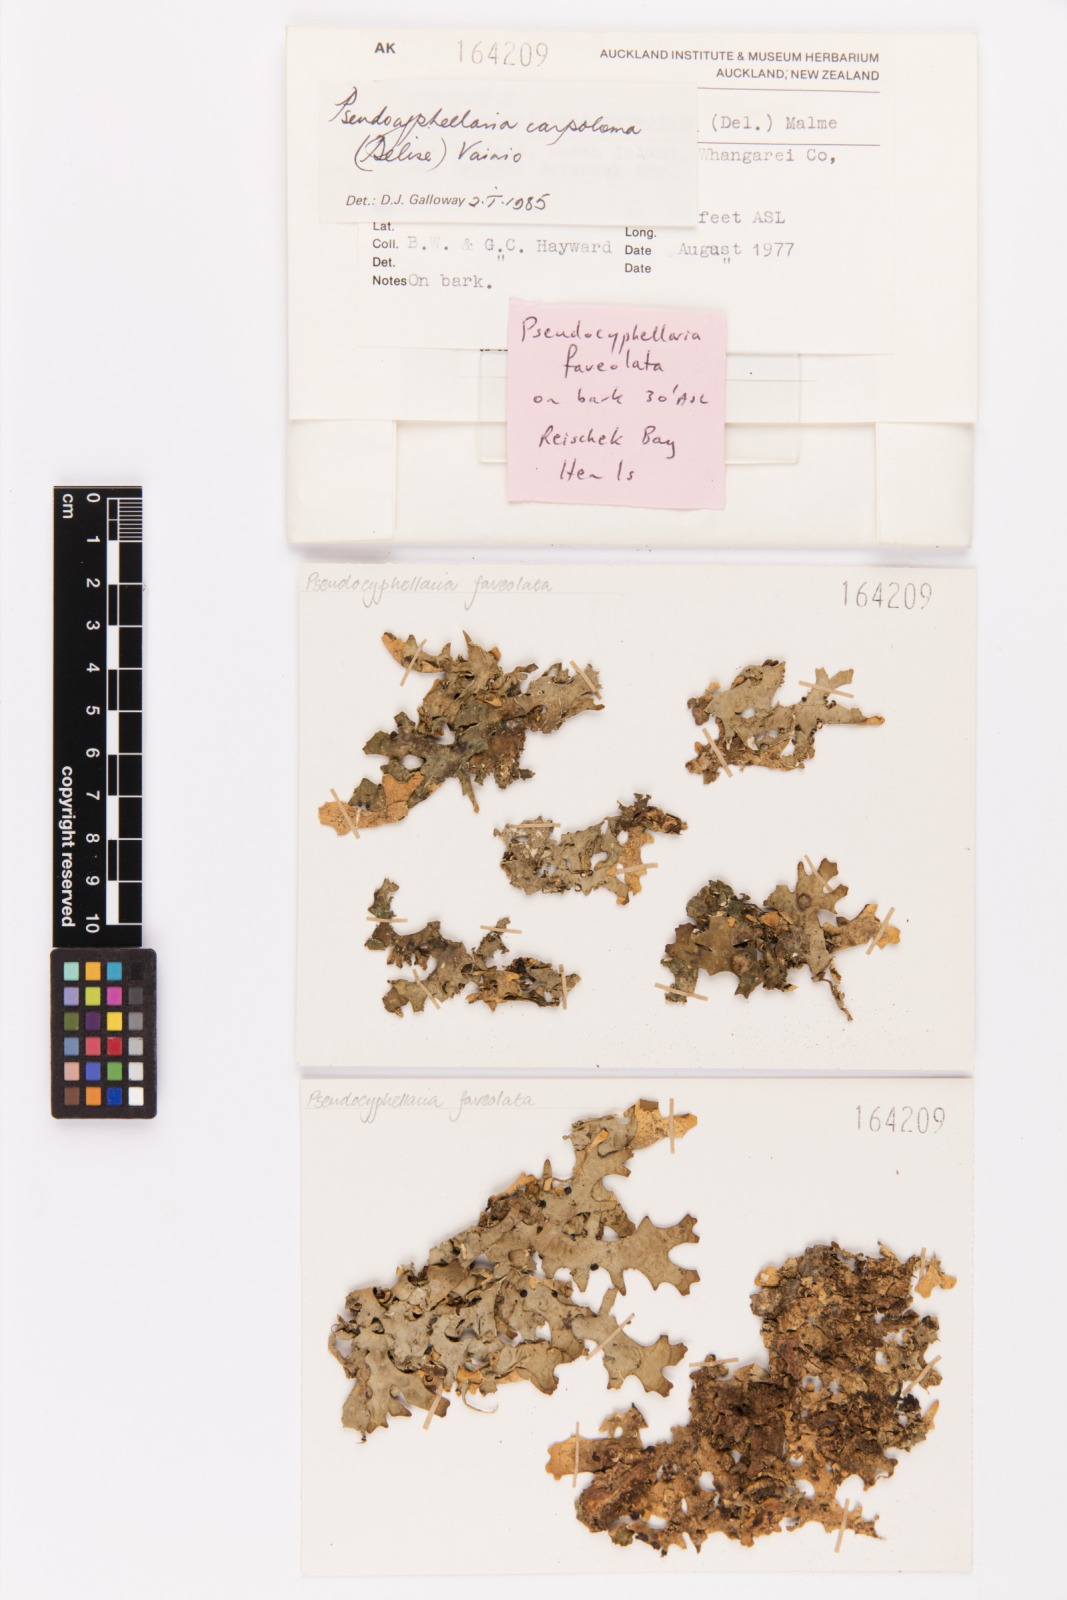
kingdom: Fungi
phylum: Ascomycota
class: Lecanoromycetes
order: Peltigerales
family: Lobariaceae
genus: Pseudocyphellaria
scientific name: Pseudocyphellaria carpoloma
